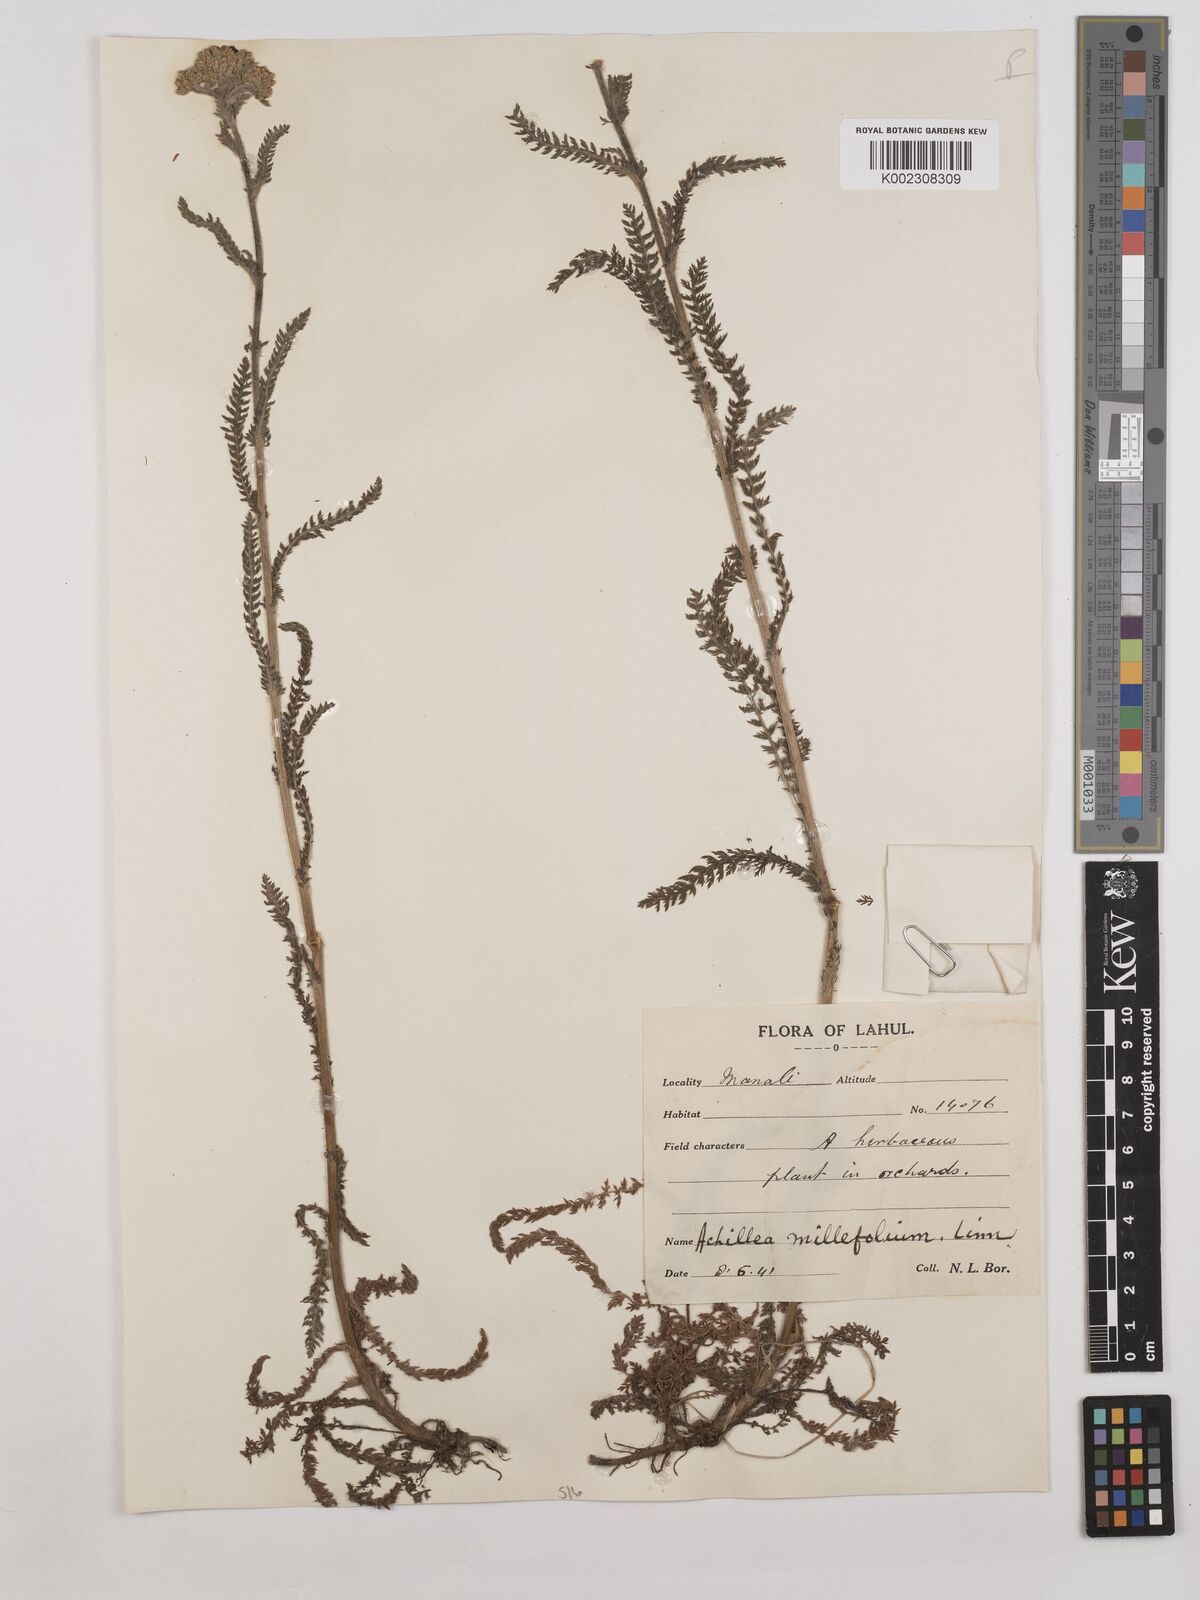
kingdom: Plantae
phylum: Tracheophyta
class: Magnoliopsida
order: Asterales
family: Asteraceae
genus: Achillea
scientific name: Achillea millefolium
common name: Yarrow
